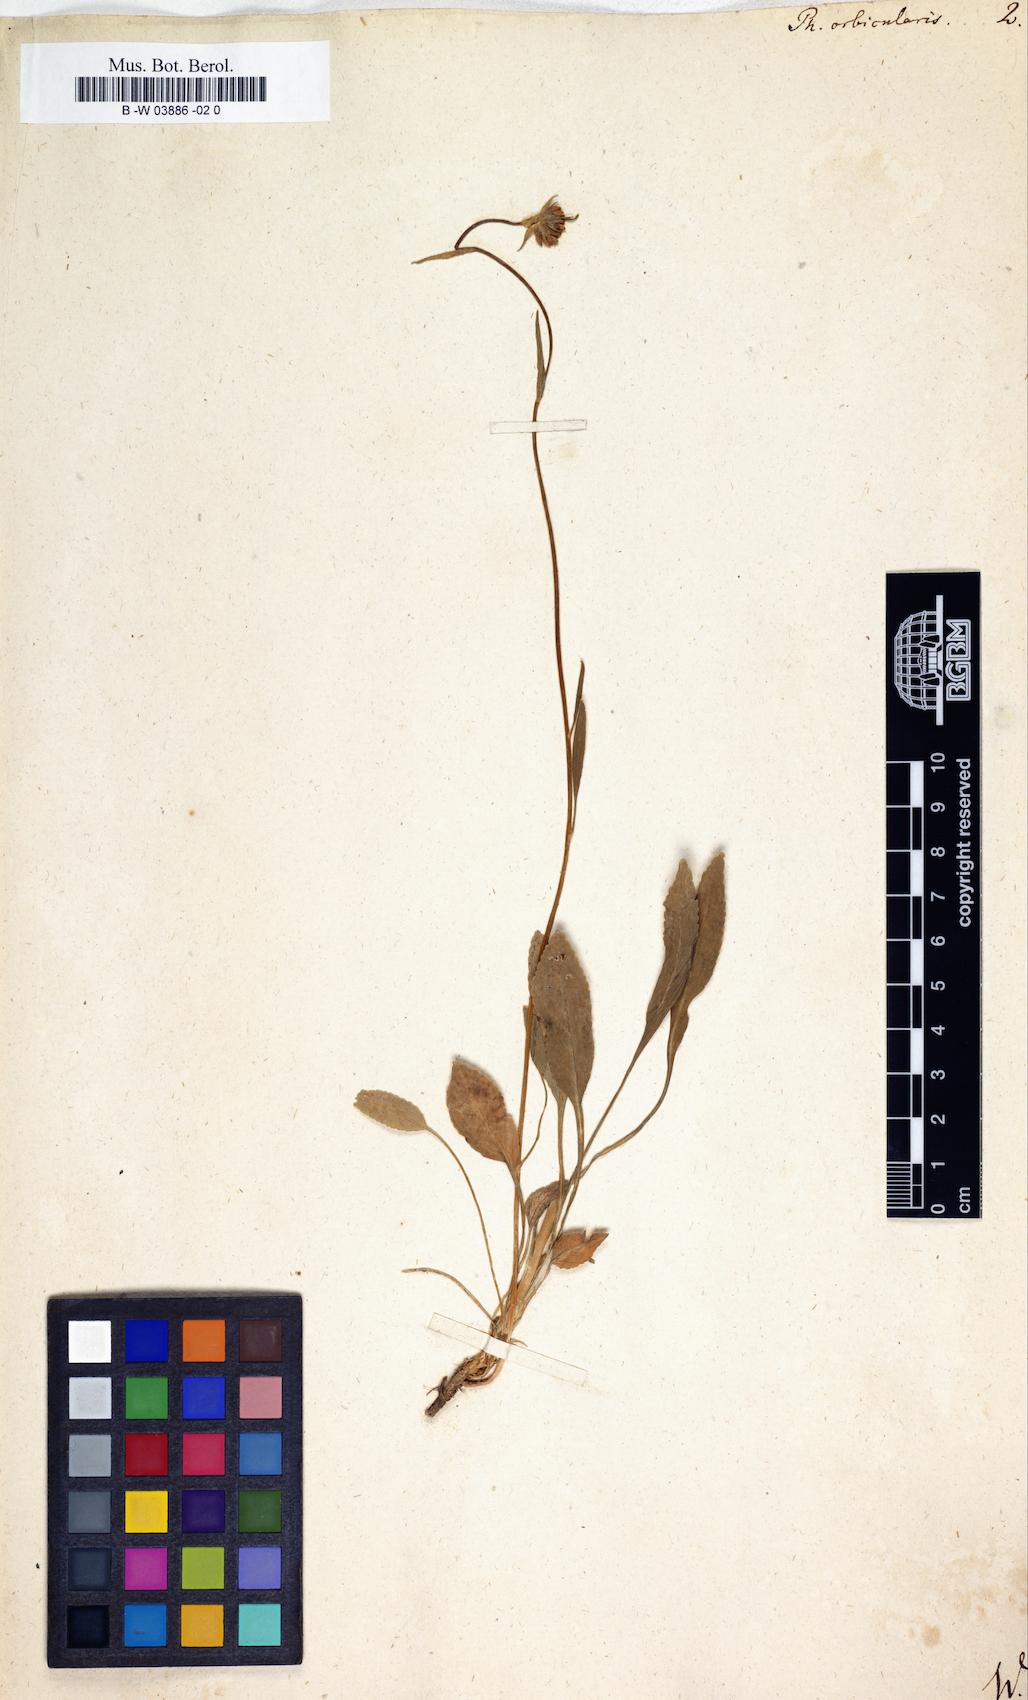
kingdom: Plantae
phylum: Tracheophyta
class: Magnoliopsida
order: Asterales
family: Campanulaceae
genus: Phyteuma
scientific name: Phyteuma orbiculare
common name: Round-headed rampion
